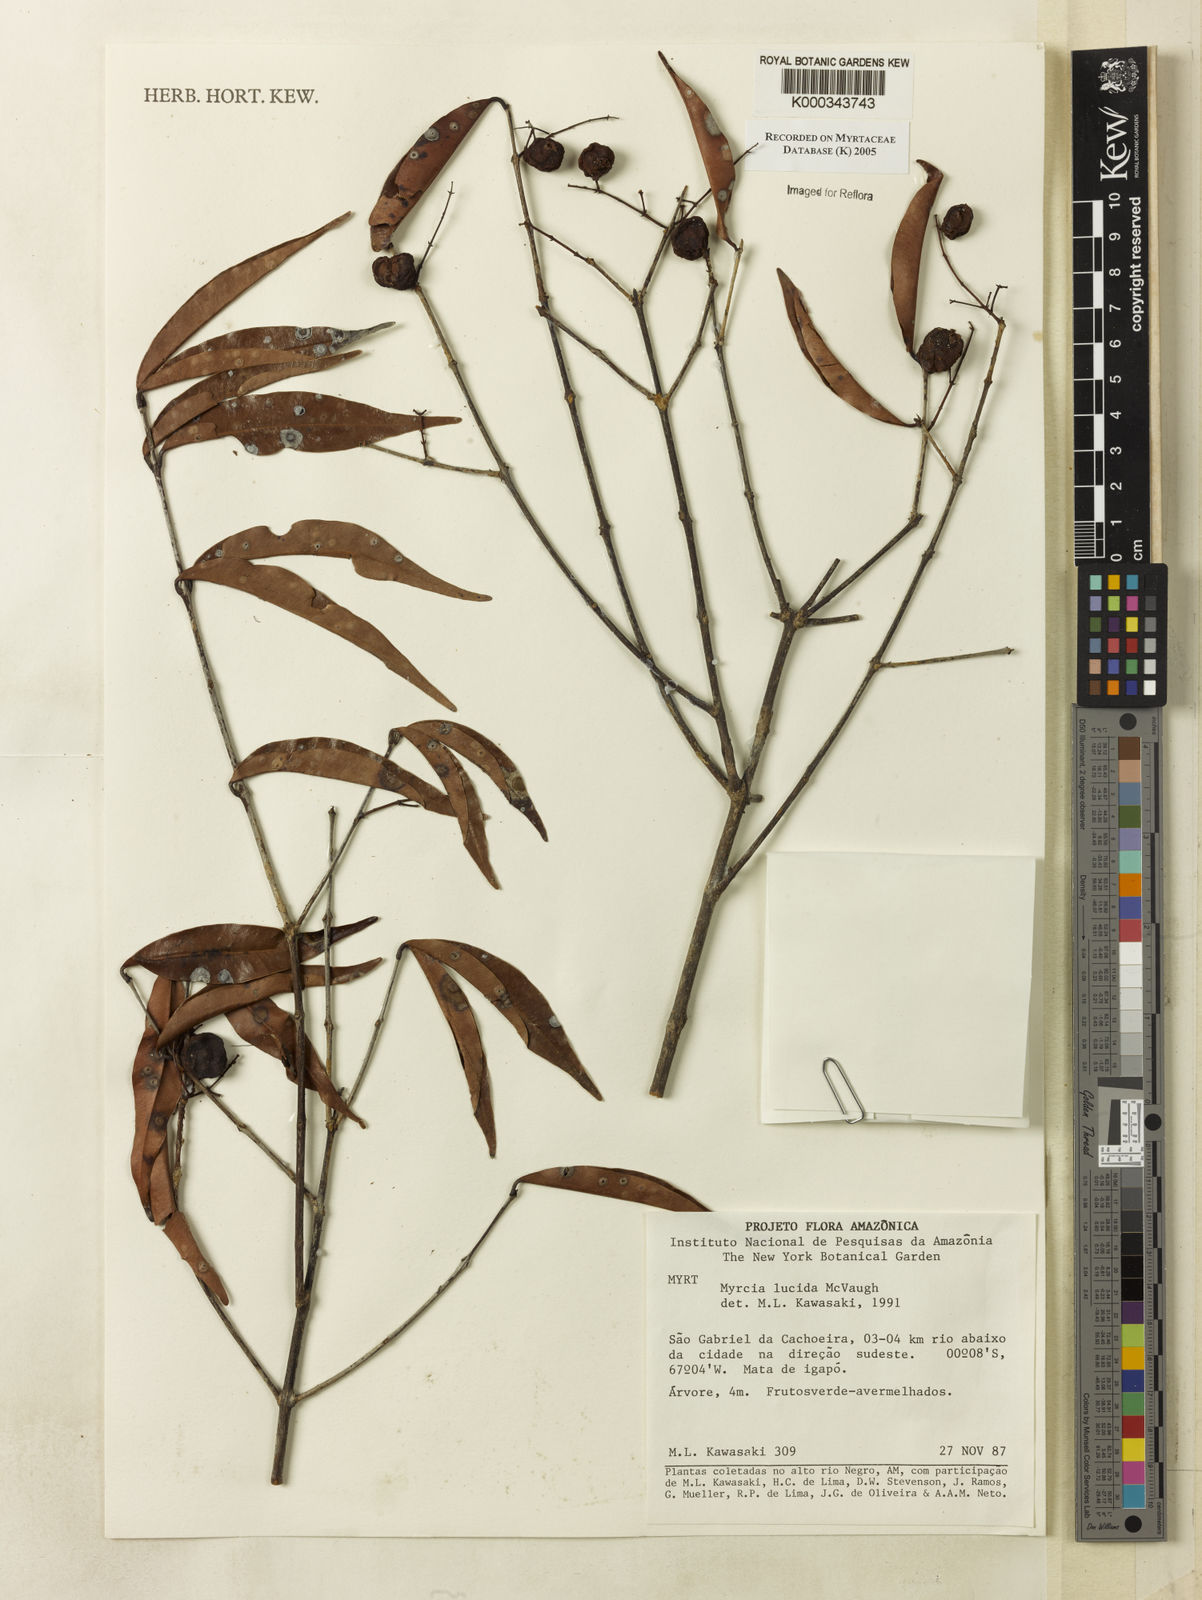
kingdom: Plantae
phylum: Tracheophyta
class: Magnoliopsida
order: Myrtales
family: Myrtaceae
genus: Myrcia
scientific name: Myrcia inaequiloba
